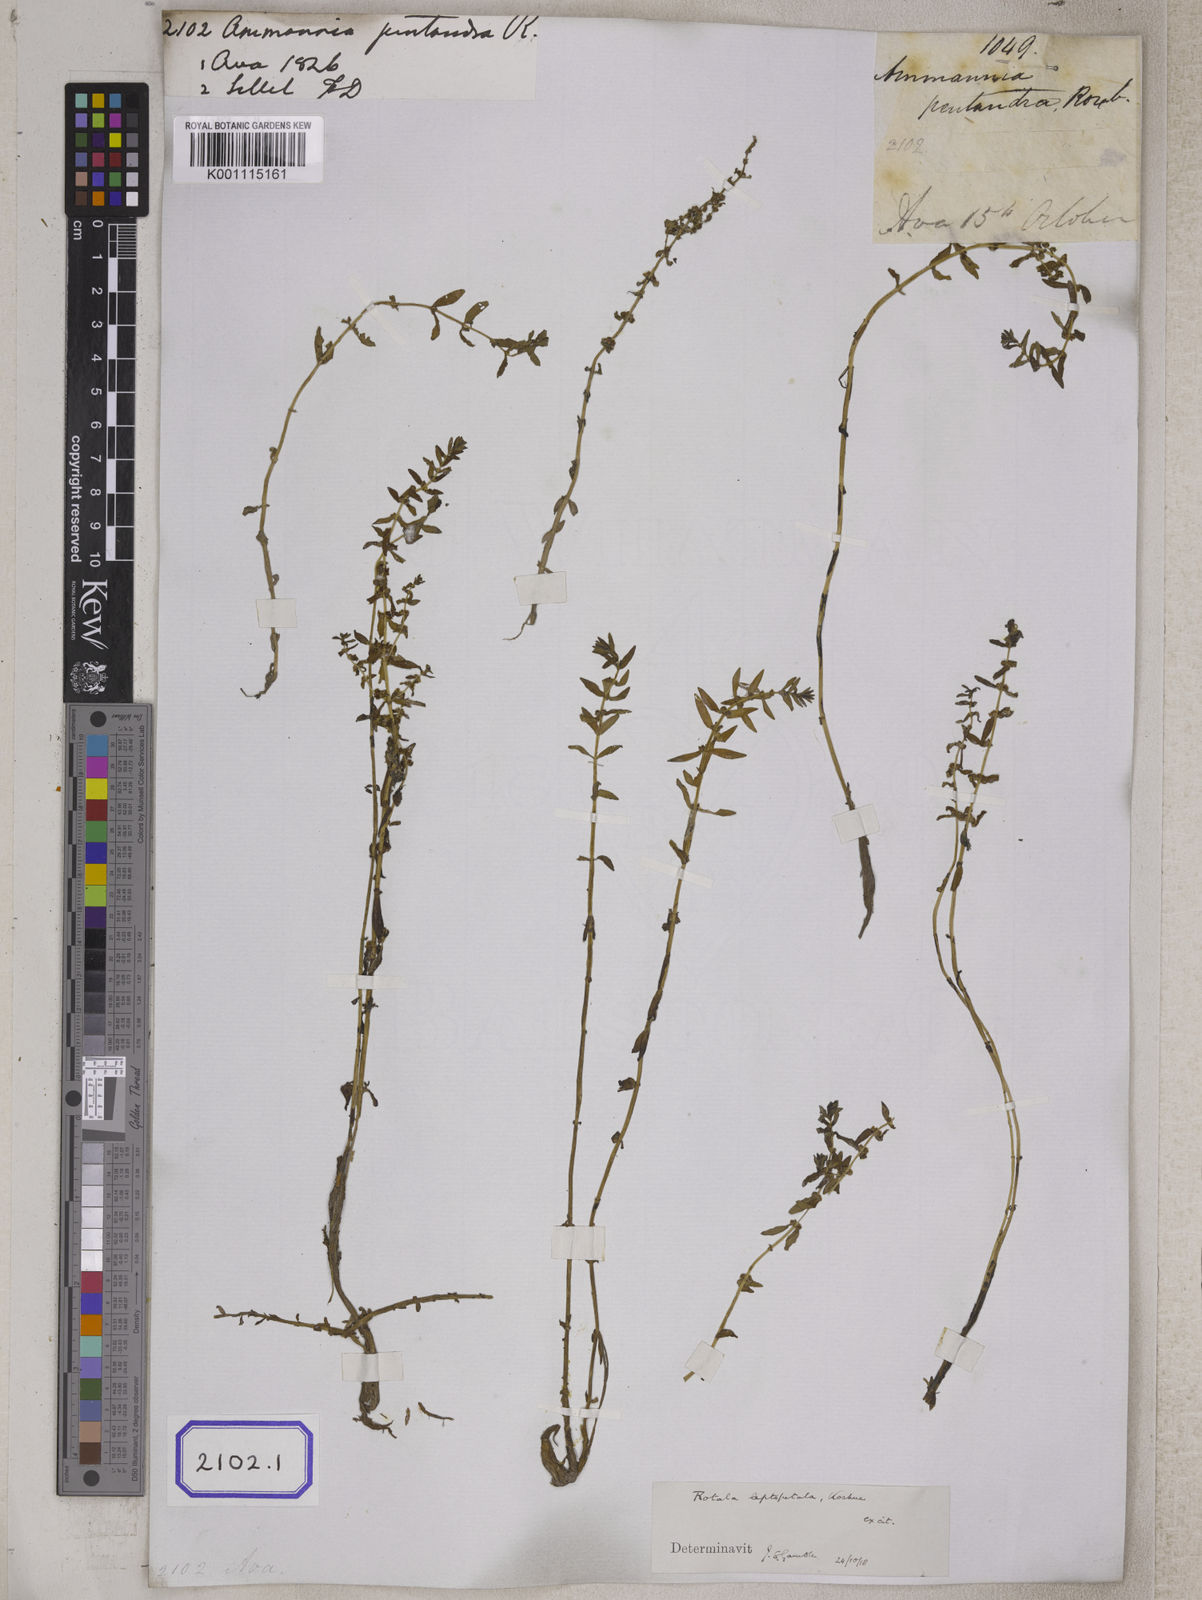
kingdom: Plantae
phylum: Tracheophyta
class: Magnoliopsida
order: Myrtales
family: Lythraceae
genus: Rotala
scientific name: Rotala rosea
